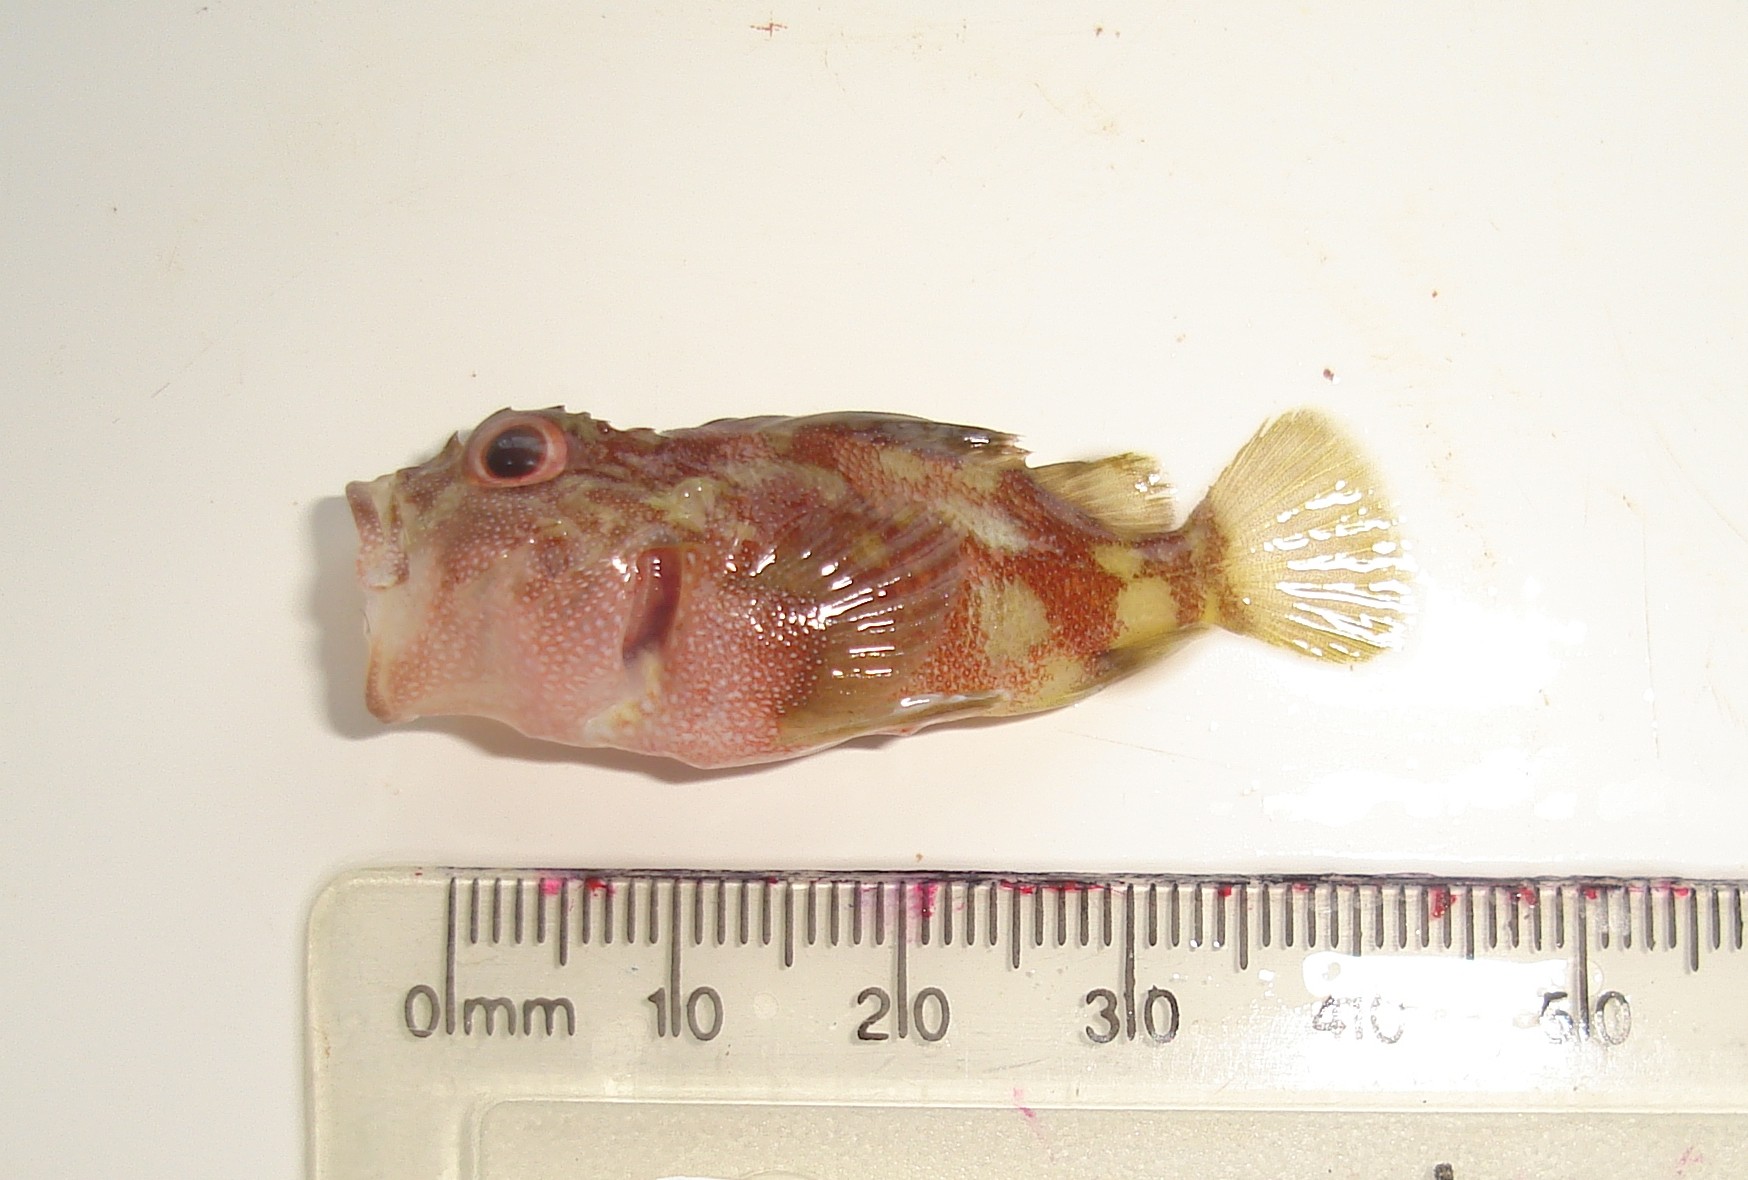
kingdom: Animalia
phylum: Chordata
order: Scorpaeniformes
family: Scorpaenidae
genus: Sebastapistes
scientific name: Sebastapistes cyanostigma
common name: Yellowspotted scorpionfish
